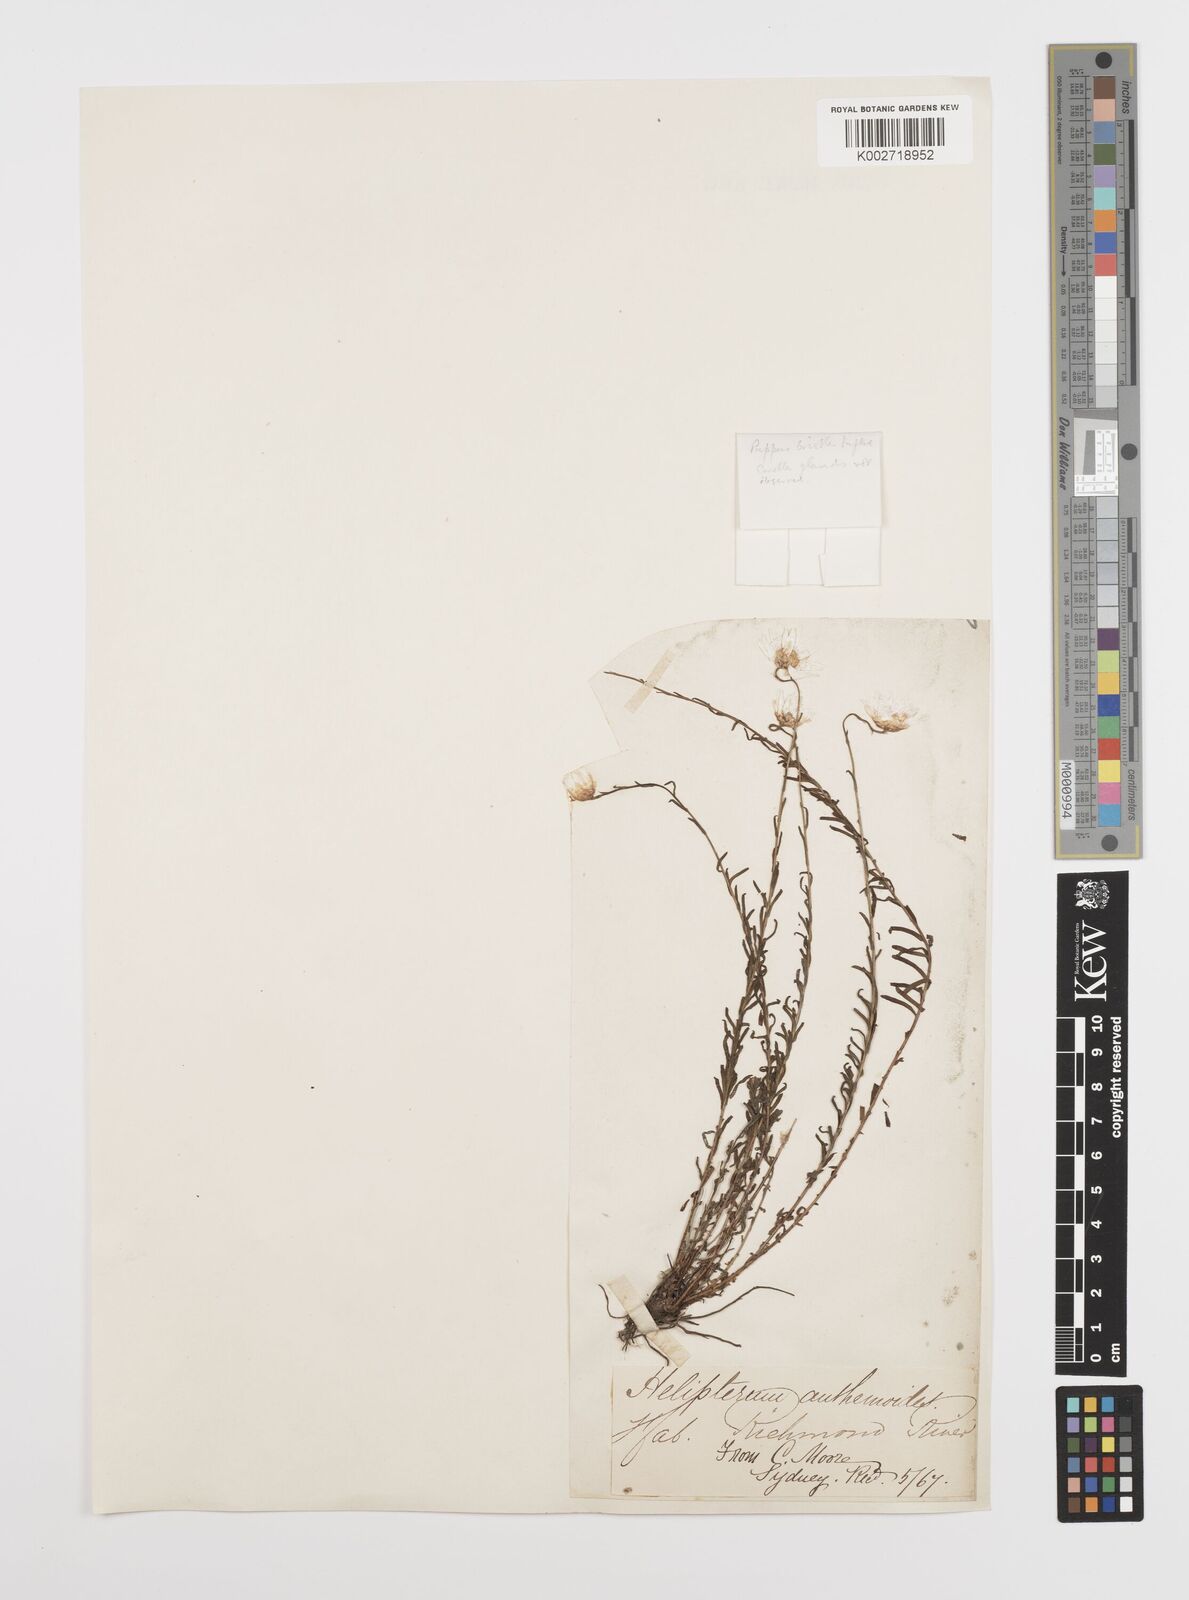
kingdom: Plantae
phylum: Tracheophyta
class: Magnoliopsida
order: Asterales
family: Asteraceae
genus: Rhodanthe
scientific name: Rhodanthe anthemoides
